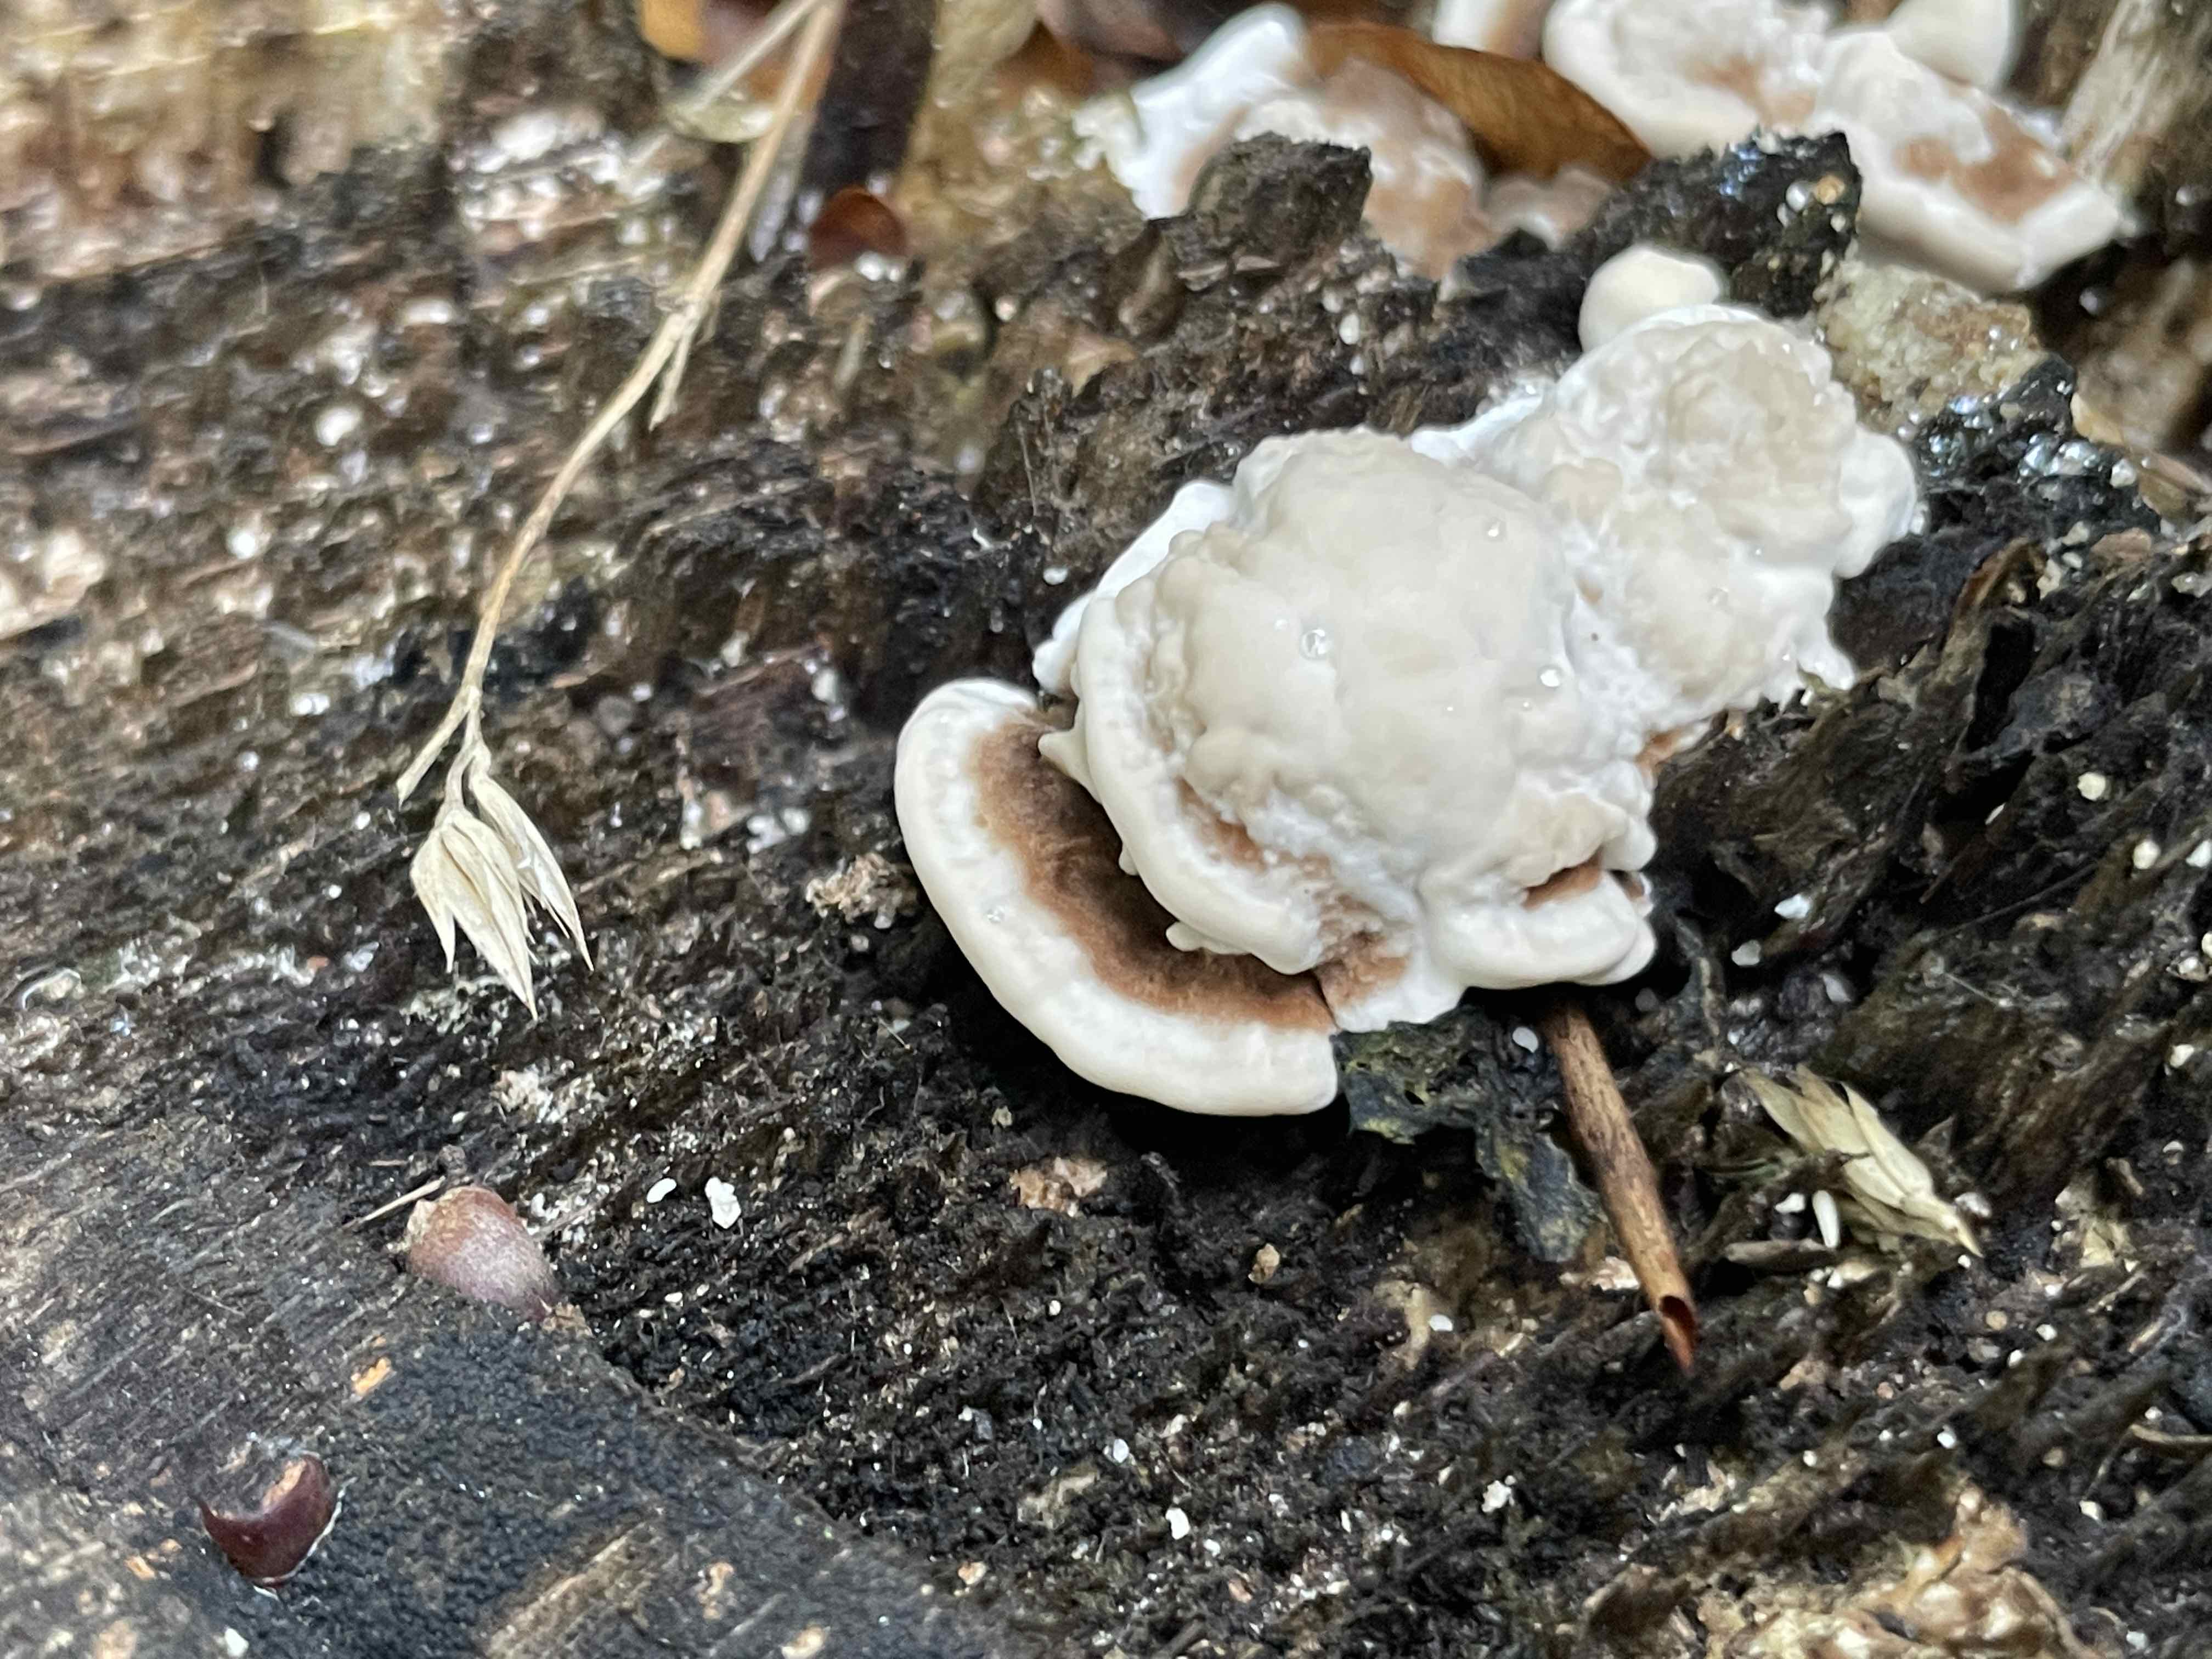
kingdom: Fungi
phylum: Basidiomycota
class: Agaricomycetes
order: Polyporales
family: Polyporaceae
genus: Trametes
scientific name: Trametes versicolor
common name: broget læderporesvamp
